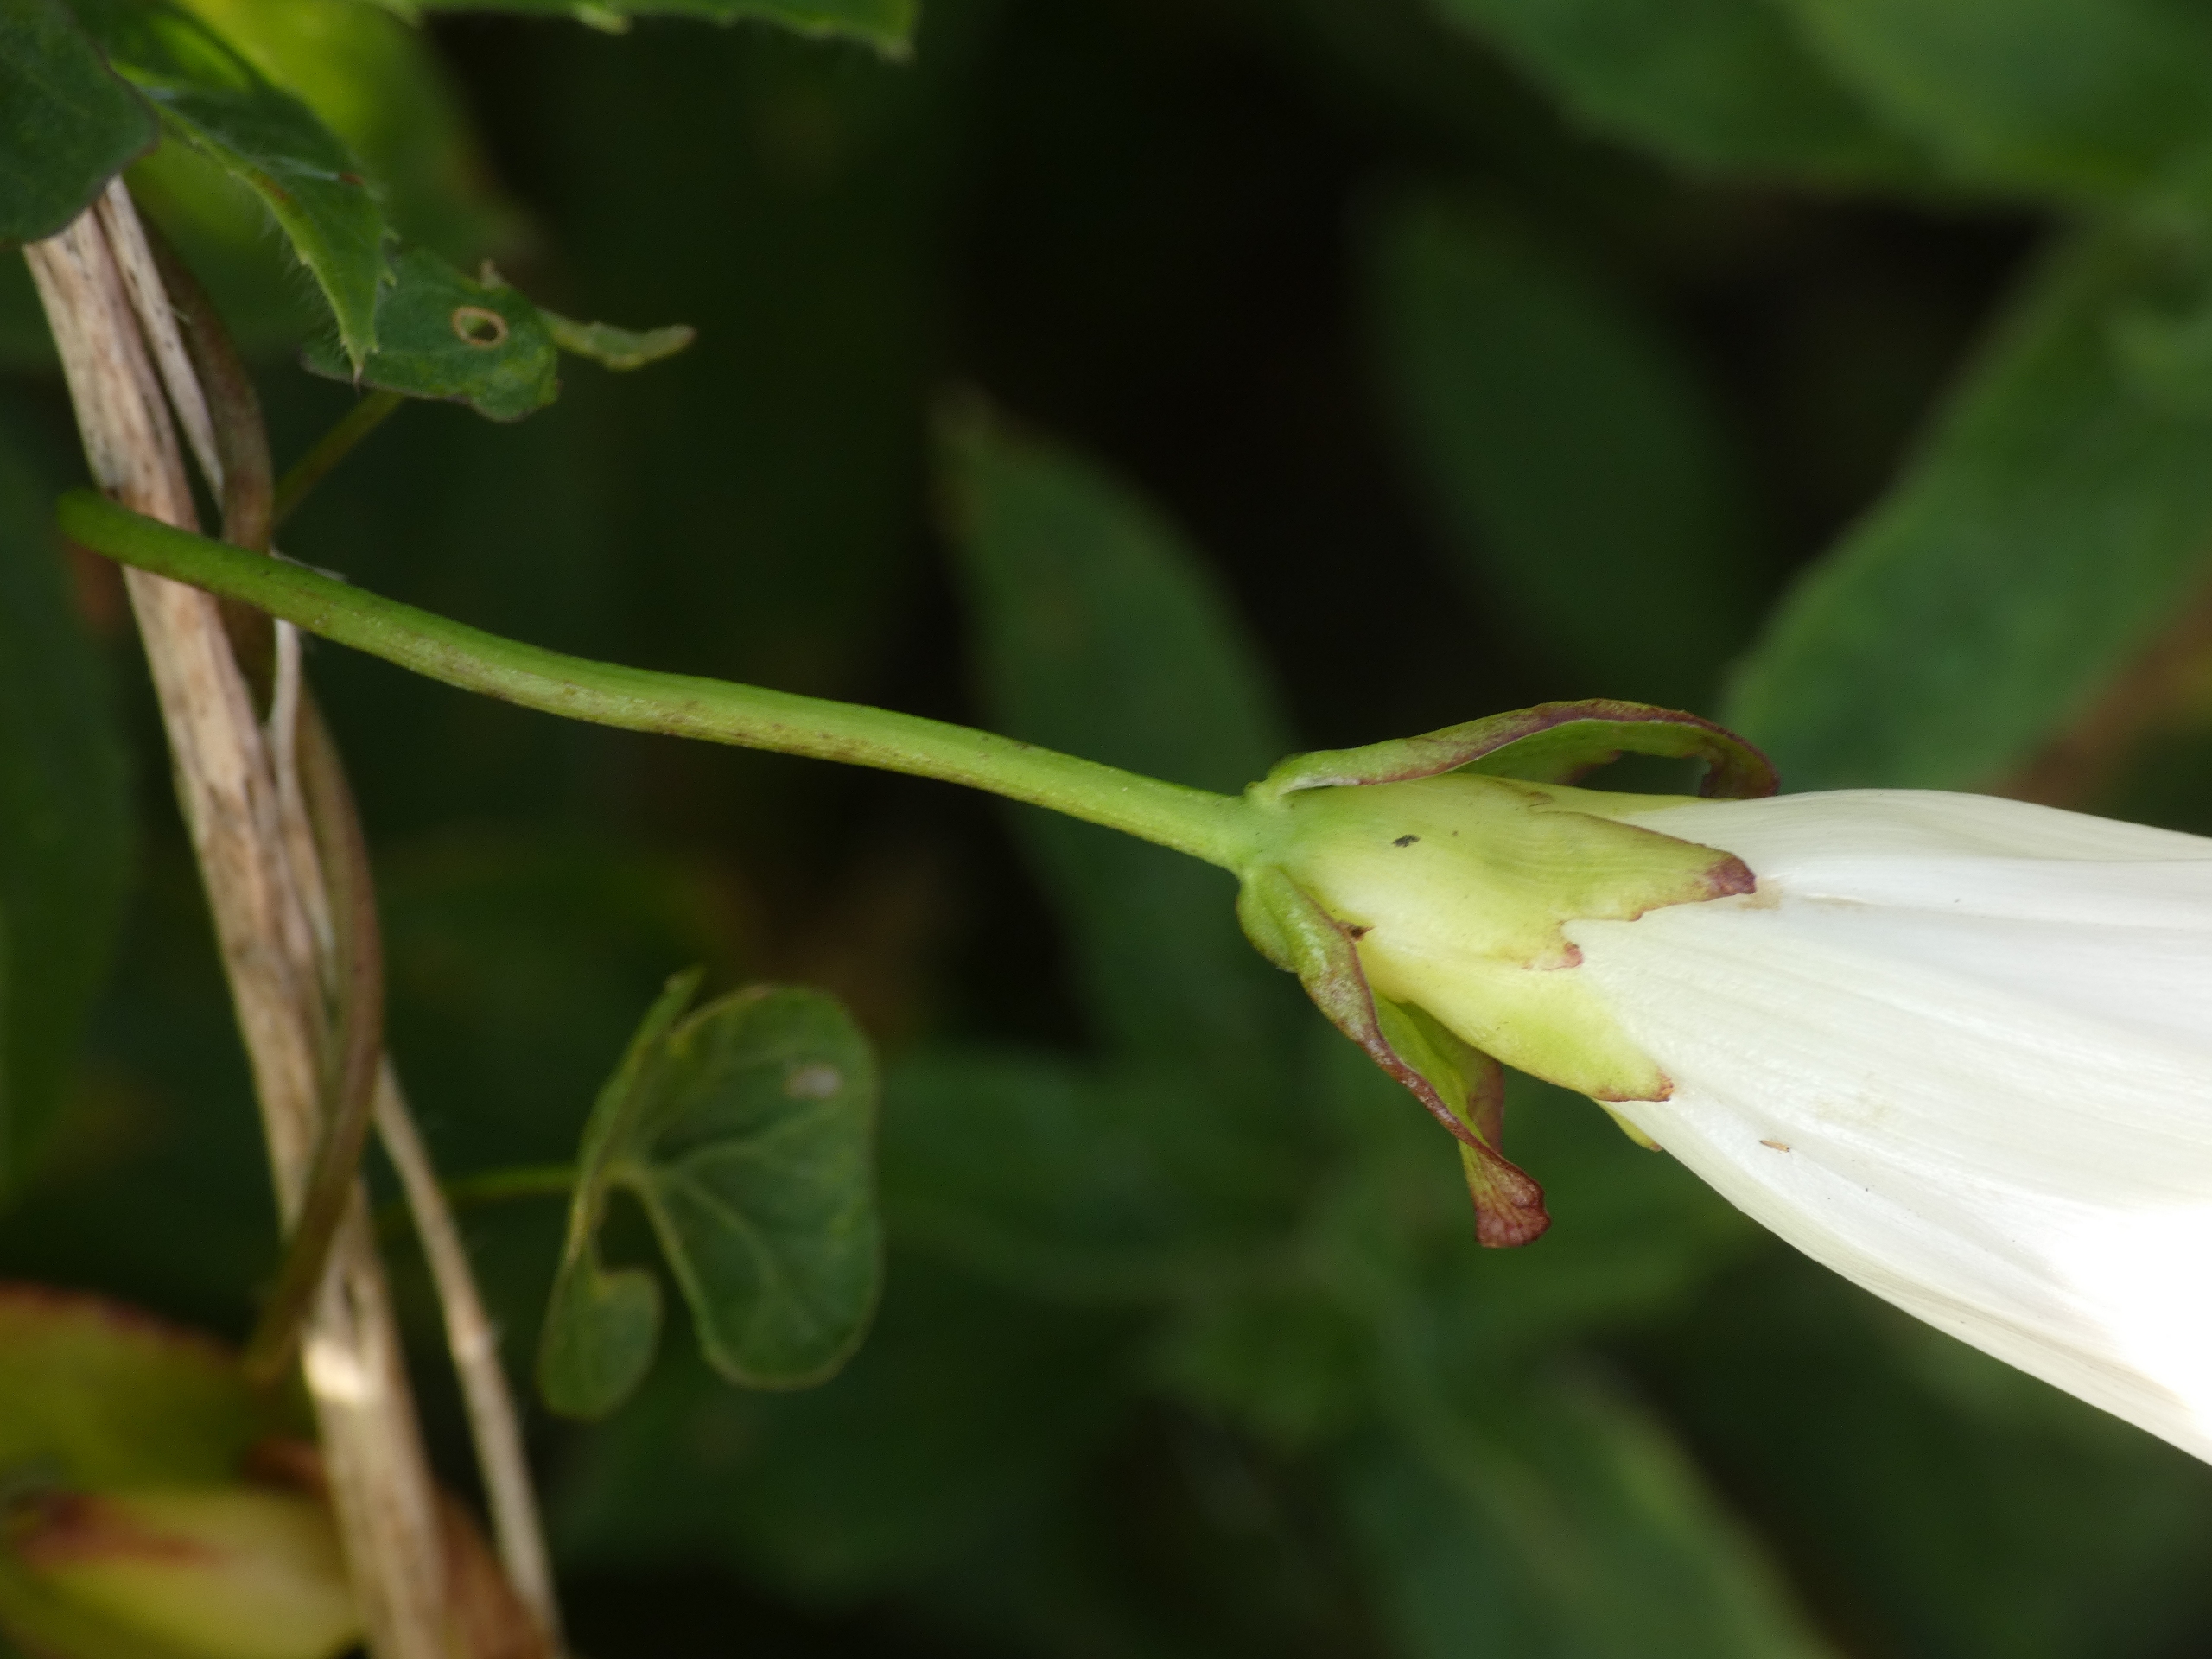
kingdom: Plantae
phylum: Tracheophyta
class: Magnoliopsida
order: Solanales
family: Convolvulaceae
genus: Calystegia
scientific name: Calystegia sepium
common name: Gærde-snerle
